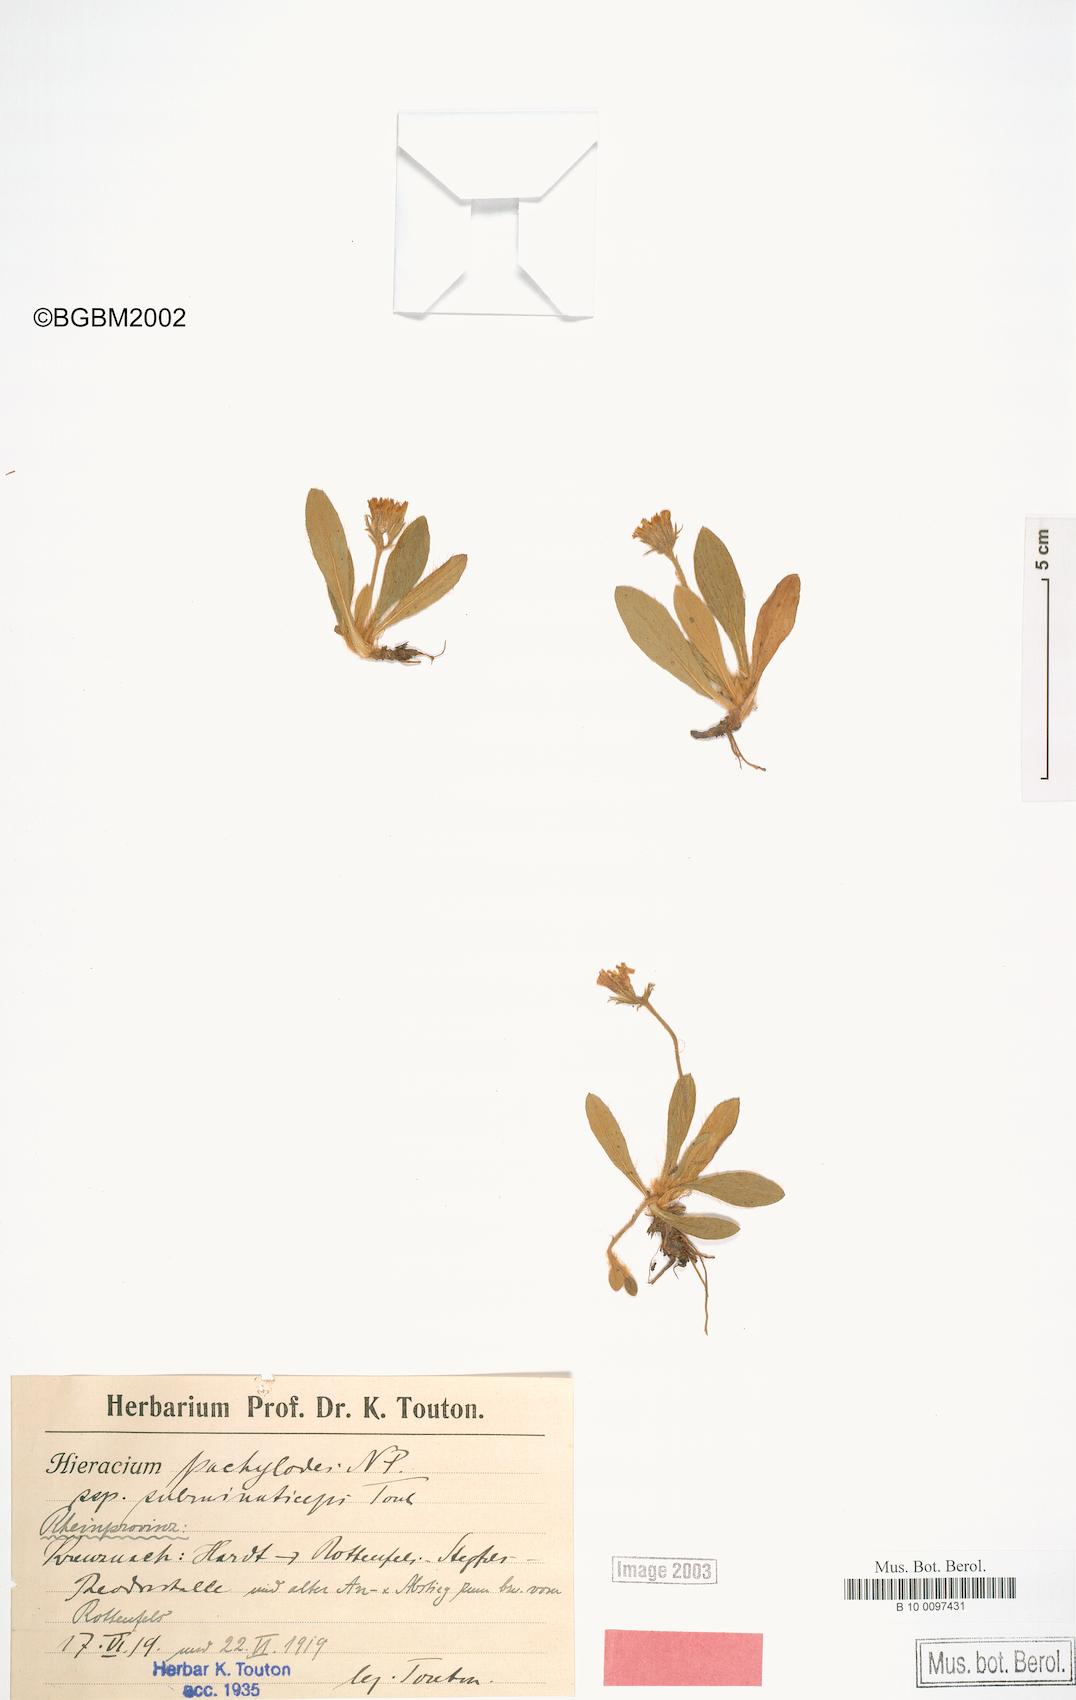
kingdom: Plantae
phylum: Tracheophyta
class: Magnoliopsida
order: Asterales
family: Asteraceae
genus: Pilosella
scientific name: Pilosella longisquama
